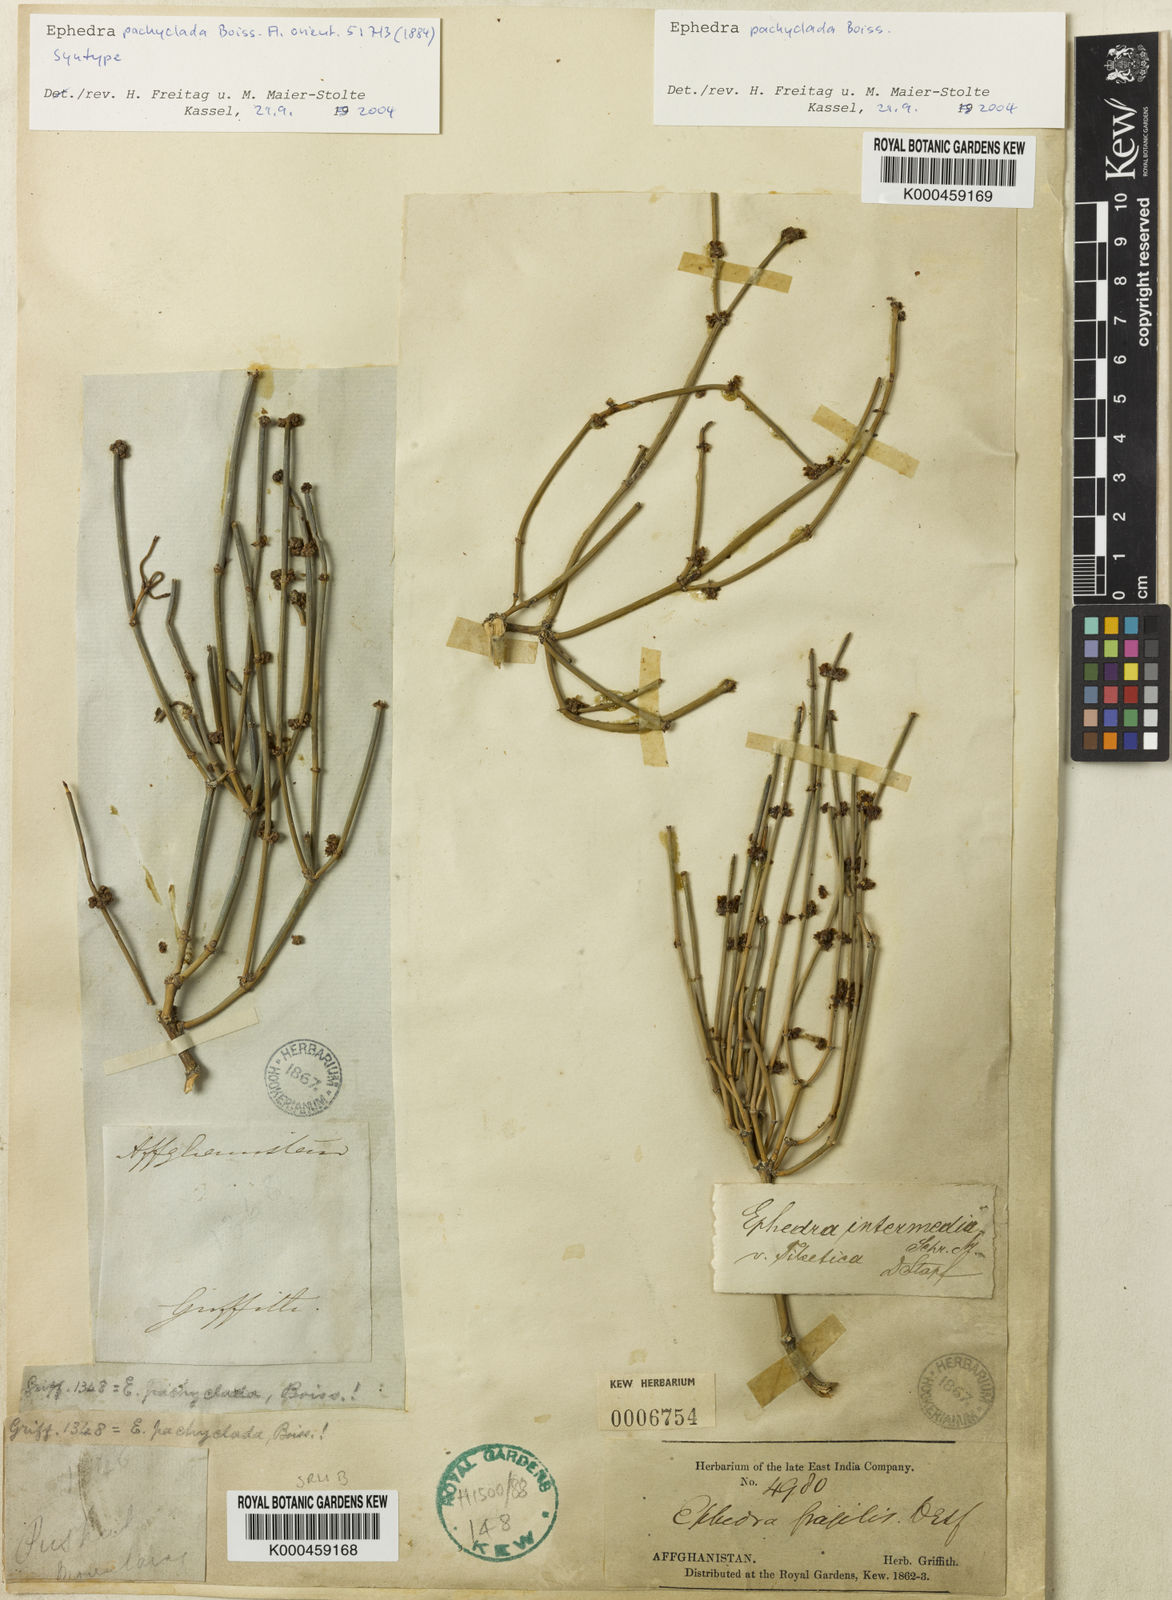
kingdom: Plantae
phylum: Tracheophyta
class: Gnetopsida
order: Ephedrales
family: Ephedraceae
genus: Ephedra
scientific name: Ephedra pachyclada
